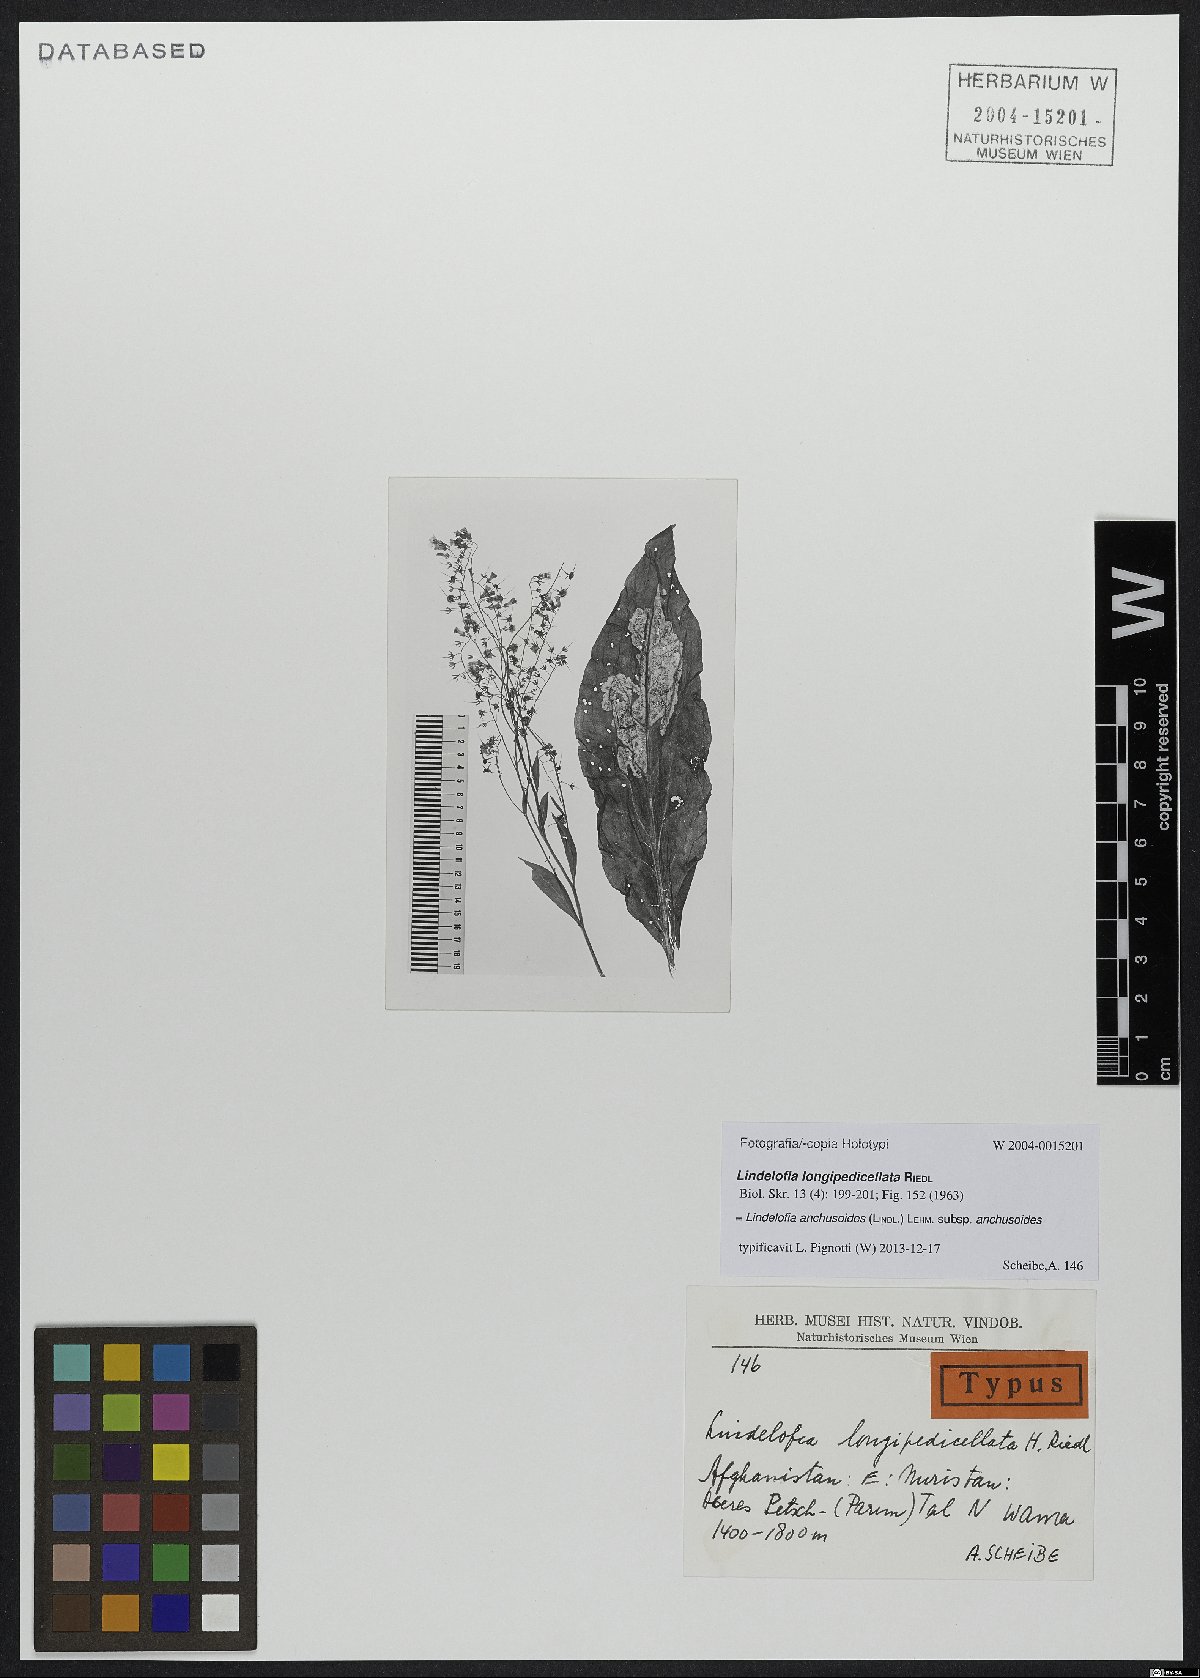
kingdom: Plantae
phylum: Tracheophyta
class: Magnoliopsida
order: Boraginales
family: Boraginaceae
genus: Lindelofia
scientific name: Lindelofia anchusoides
